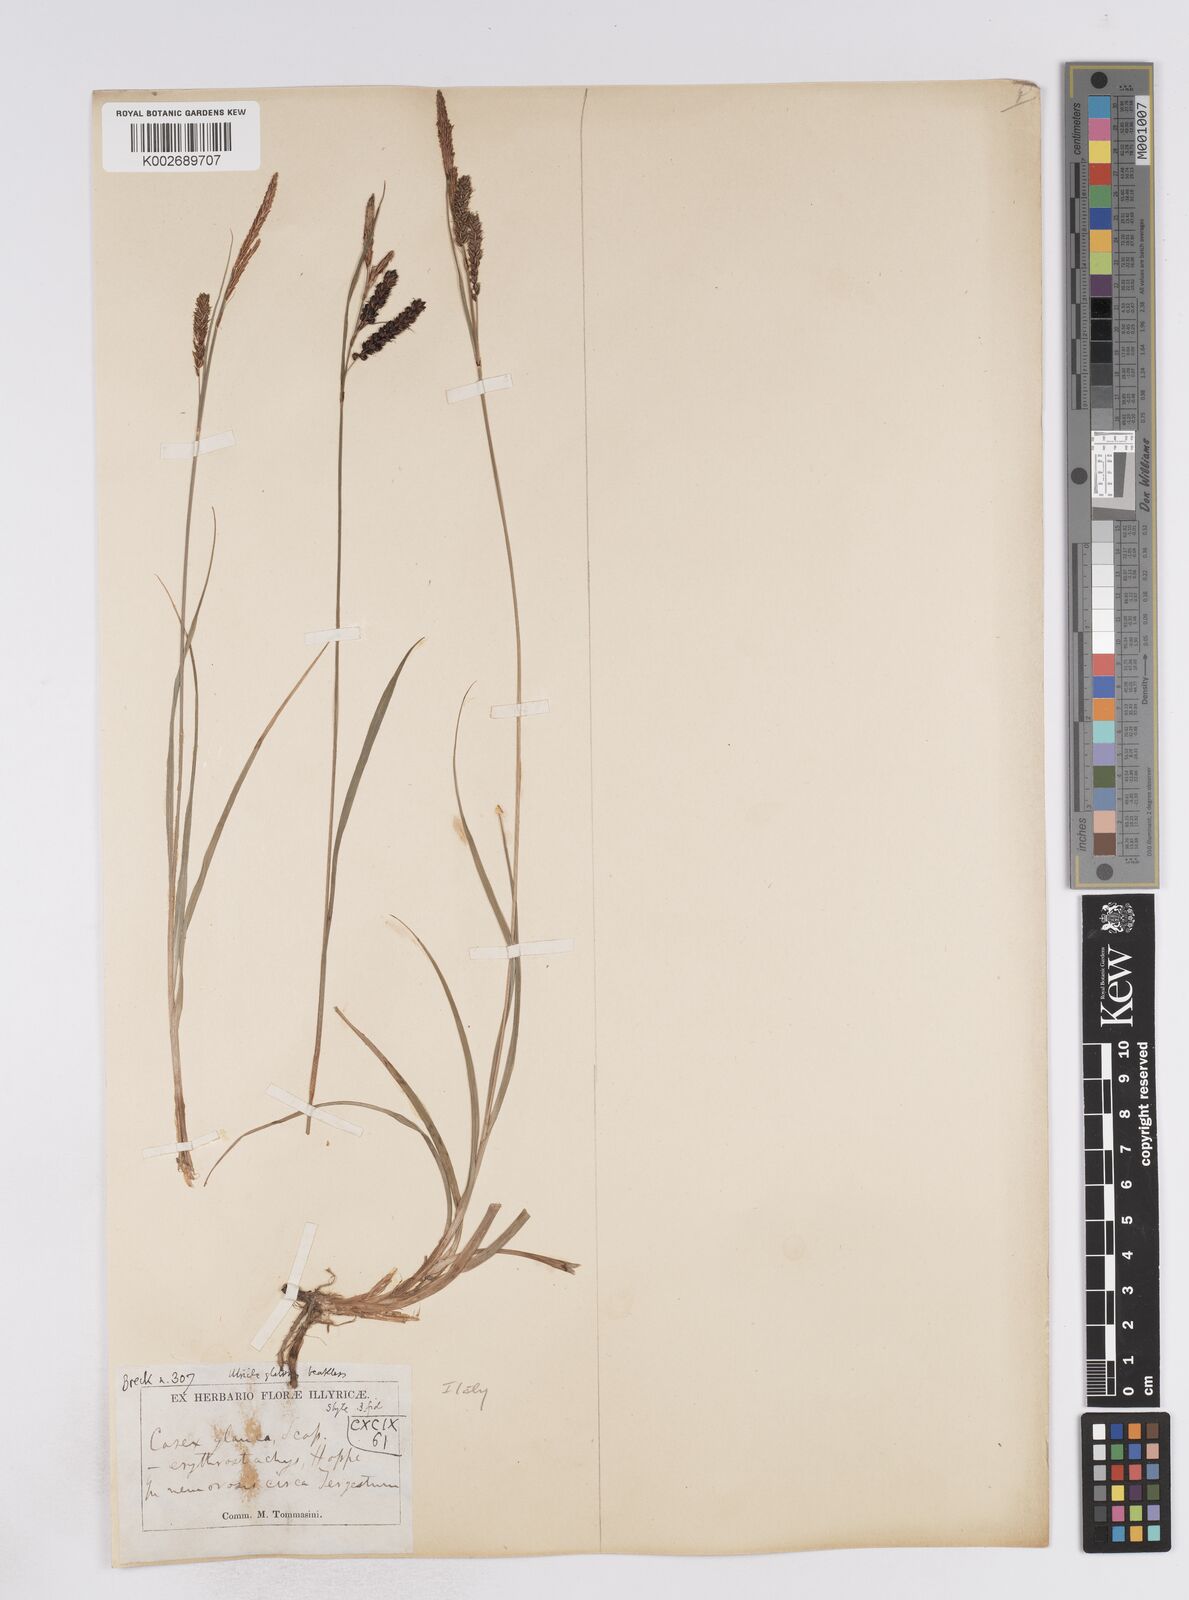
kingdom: Plantae
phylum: Tracheophyta
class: Liliopsida
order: Poales
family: Cyperaceae
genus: Carex
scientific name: Carex flacca
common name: Glaucous sedge
